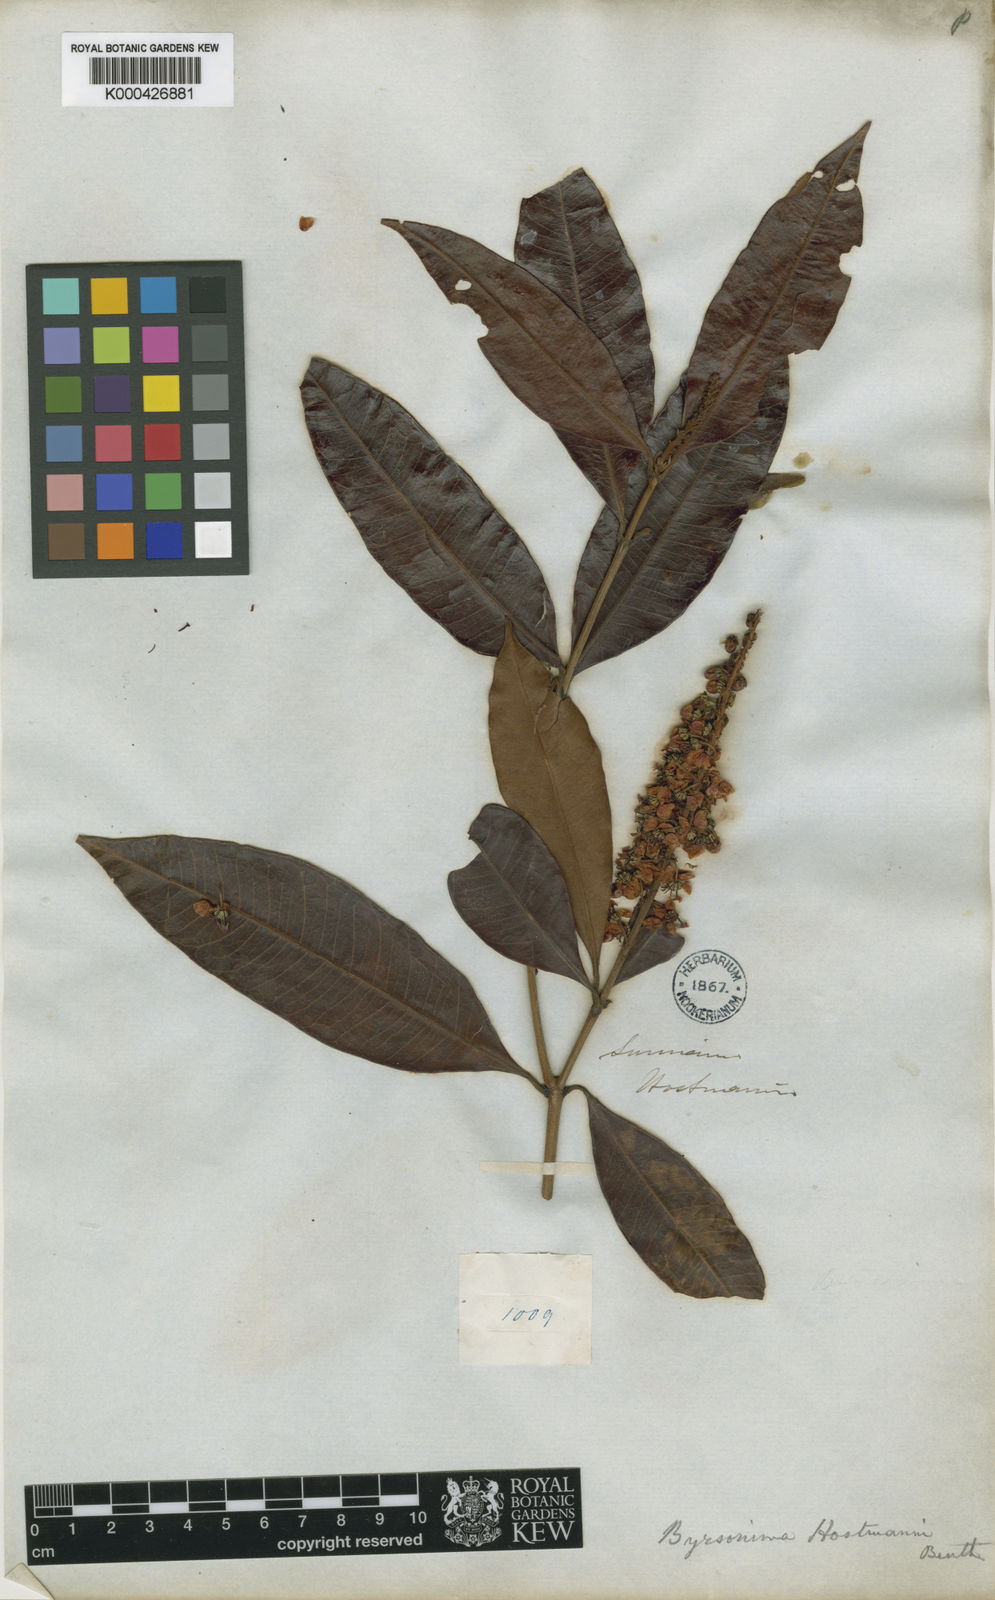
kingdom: Plantae
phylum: Tracheophyta
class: Magnoliopsida
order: Malpighiales
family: Malpighiaceae
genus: Byrsonima
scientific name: Byrsonima
